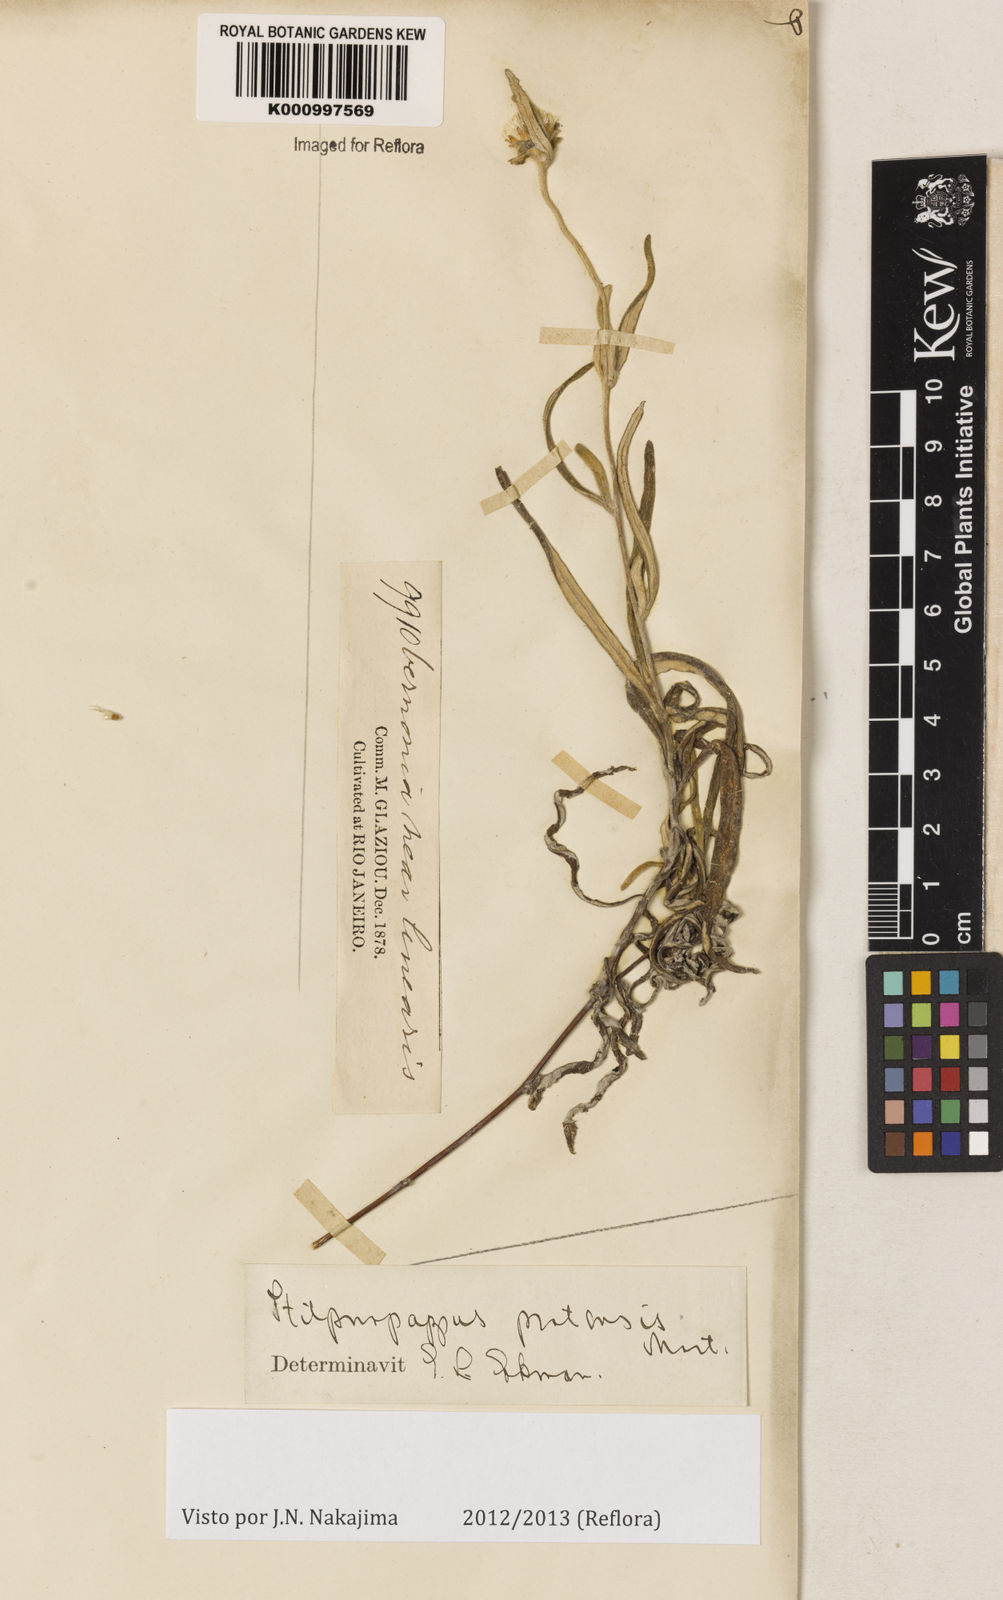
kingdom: Plantae
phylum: Tracheophyta
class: Magnoliopsida
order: Asterales
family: Asteraceae
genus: Stilpnopappus
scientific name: Stilpnopappus pratensis
